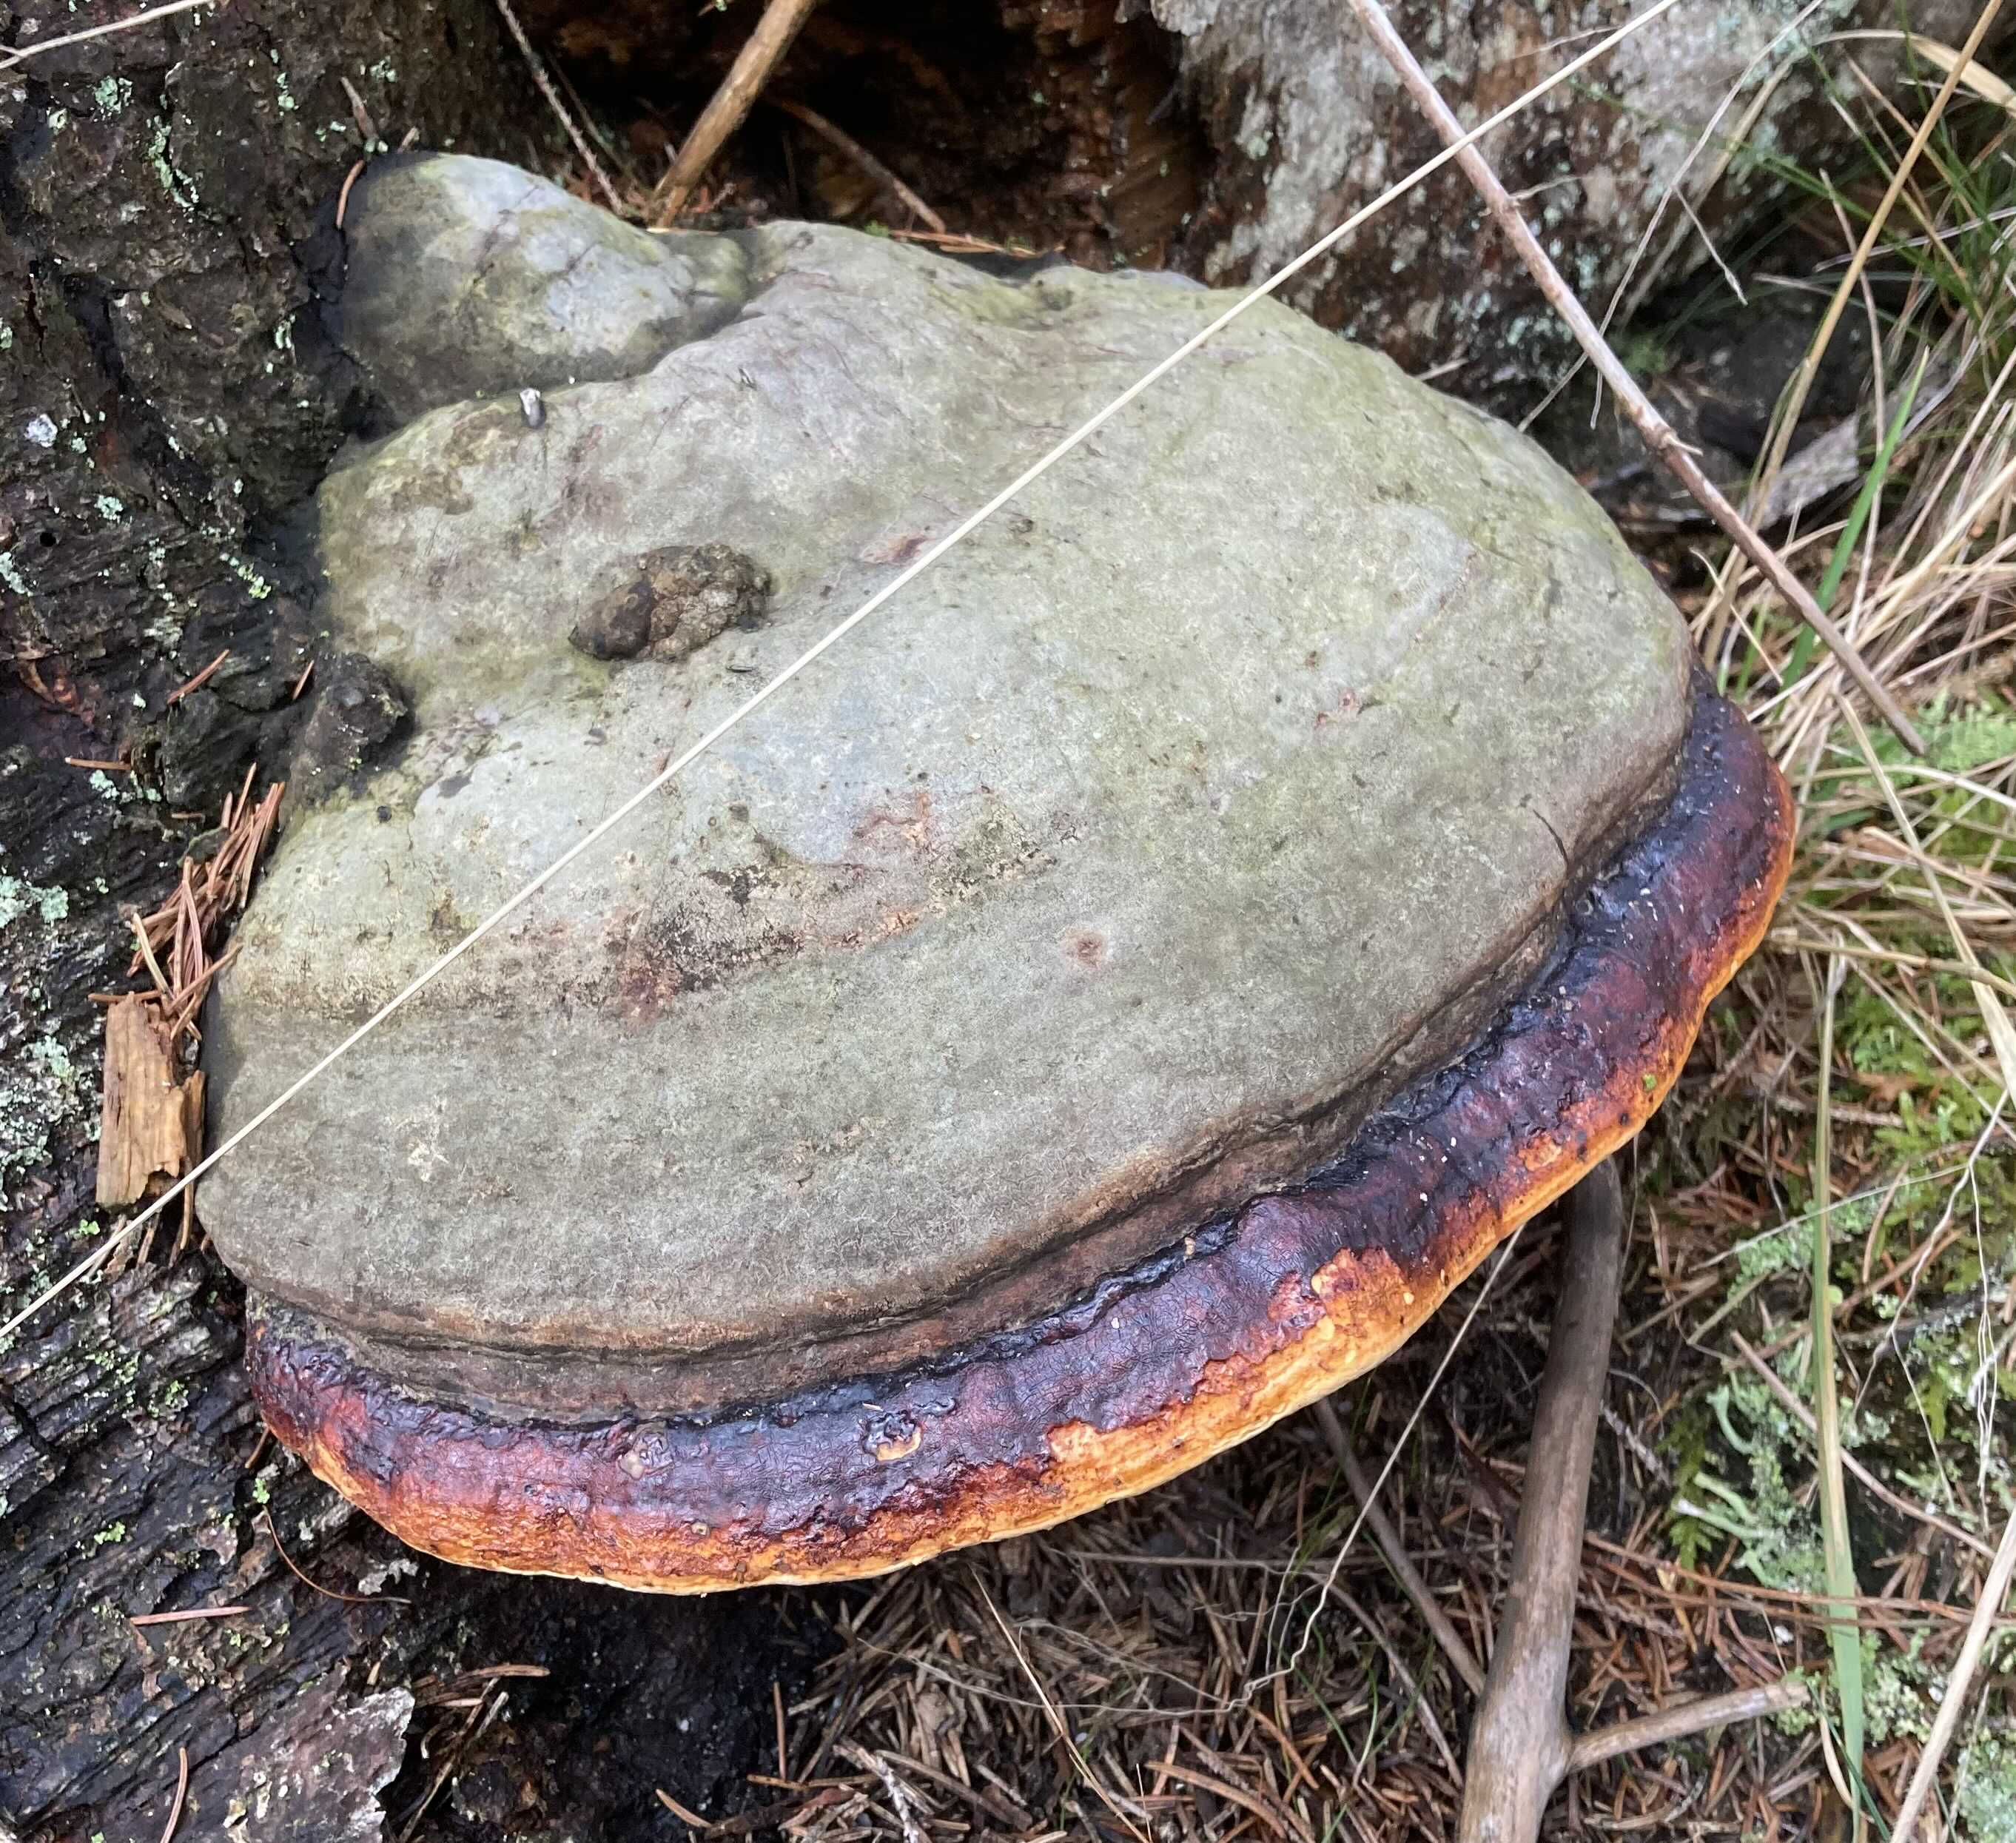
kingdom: Fungi
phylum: Basidiomycota
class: Agaricomycetes
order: Polyporales
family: Fomitopsidaceae
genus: Fomitopsis
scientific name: Fomitopsis pinicola
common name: randbæltet hovporesvamp
